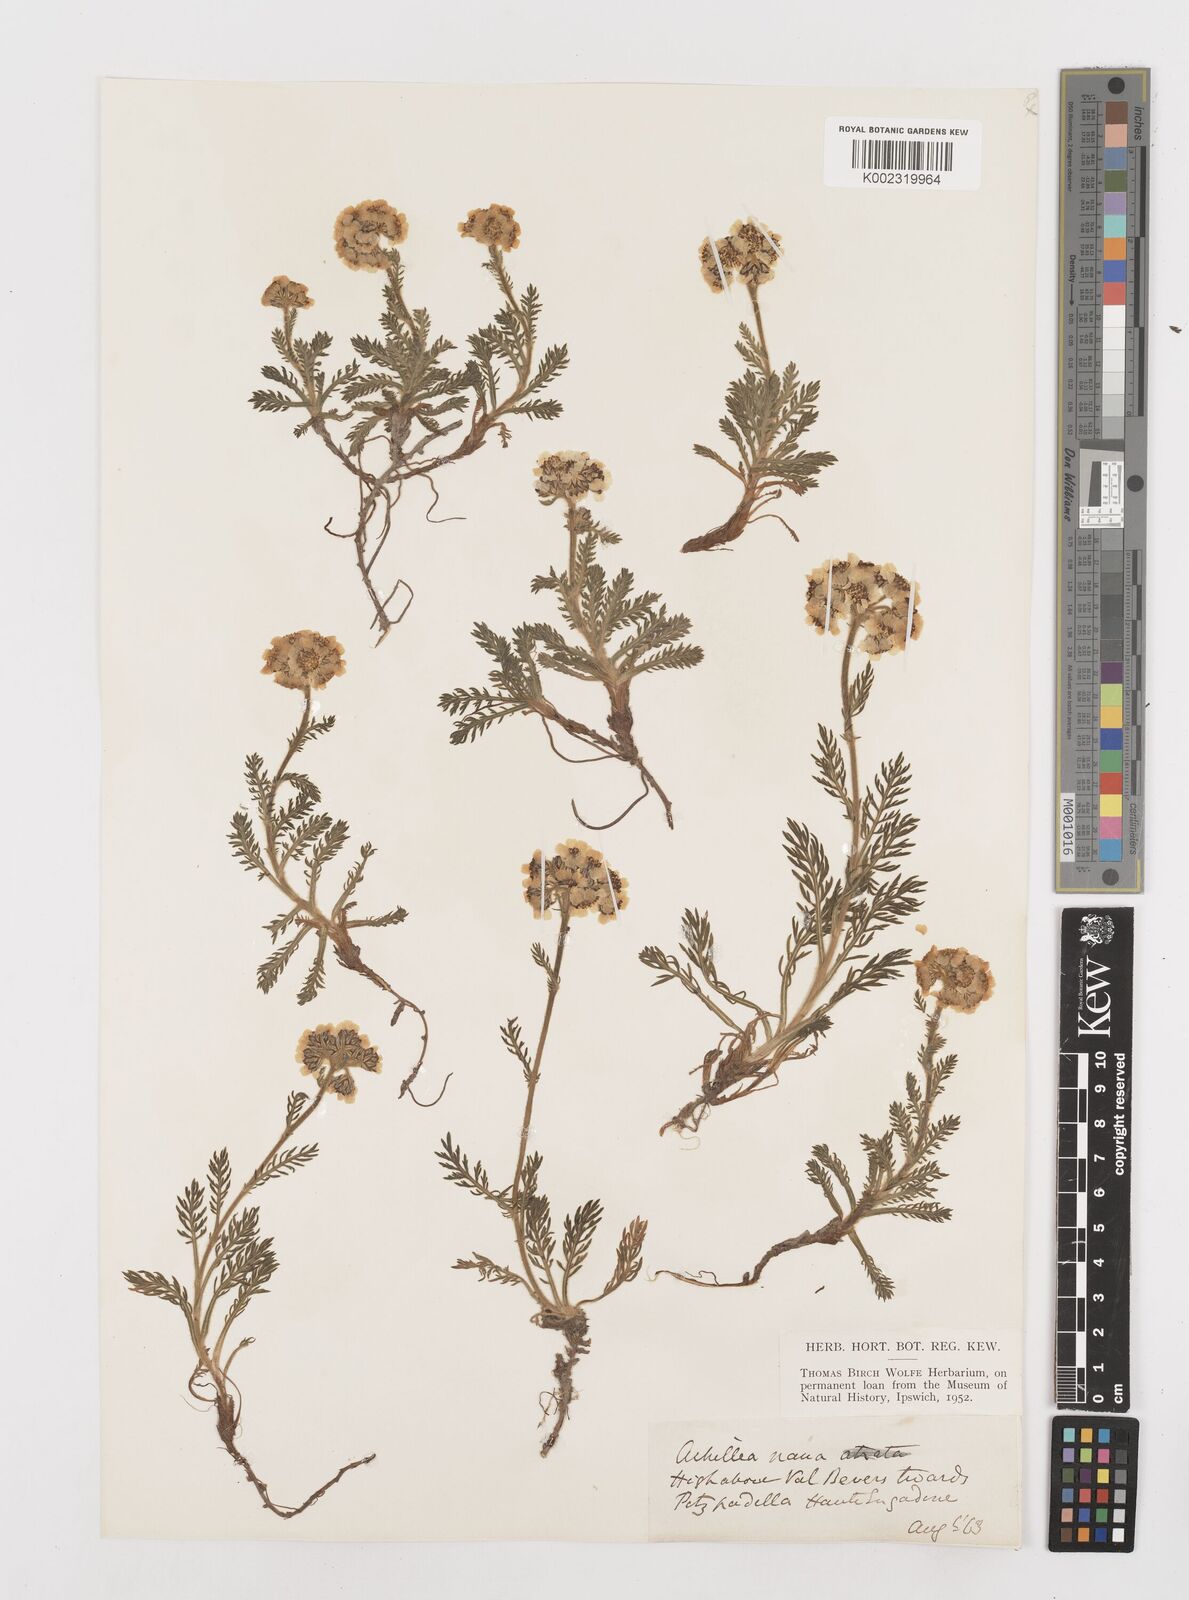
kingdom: Plantae
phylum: Tracheophyta
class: Magnoliopsida
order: Asterales
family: Asteraceae
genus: Achillea
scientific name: Achillea erba-rotta
